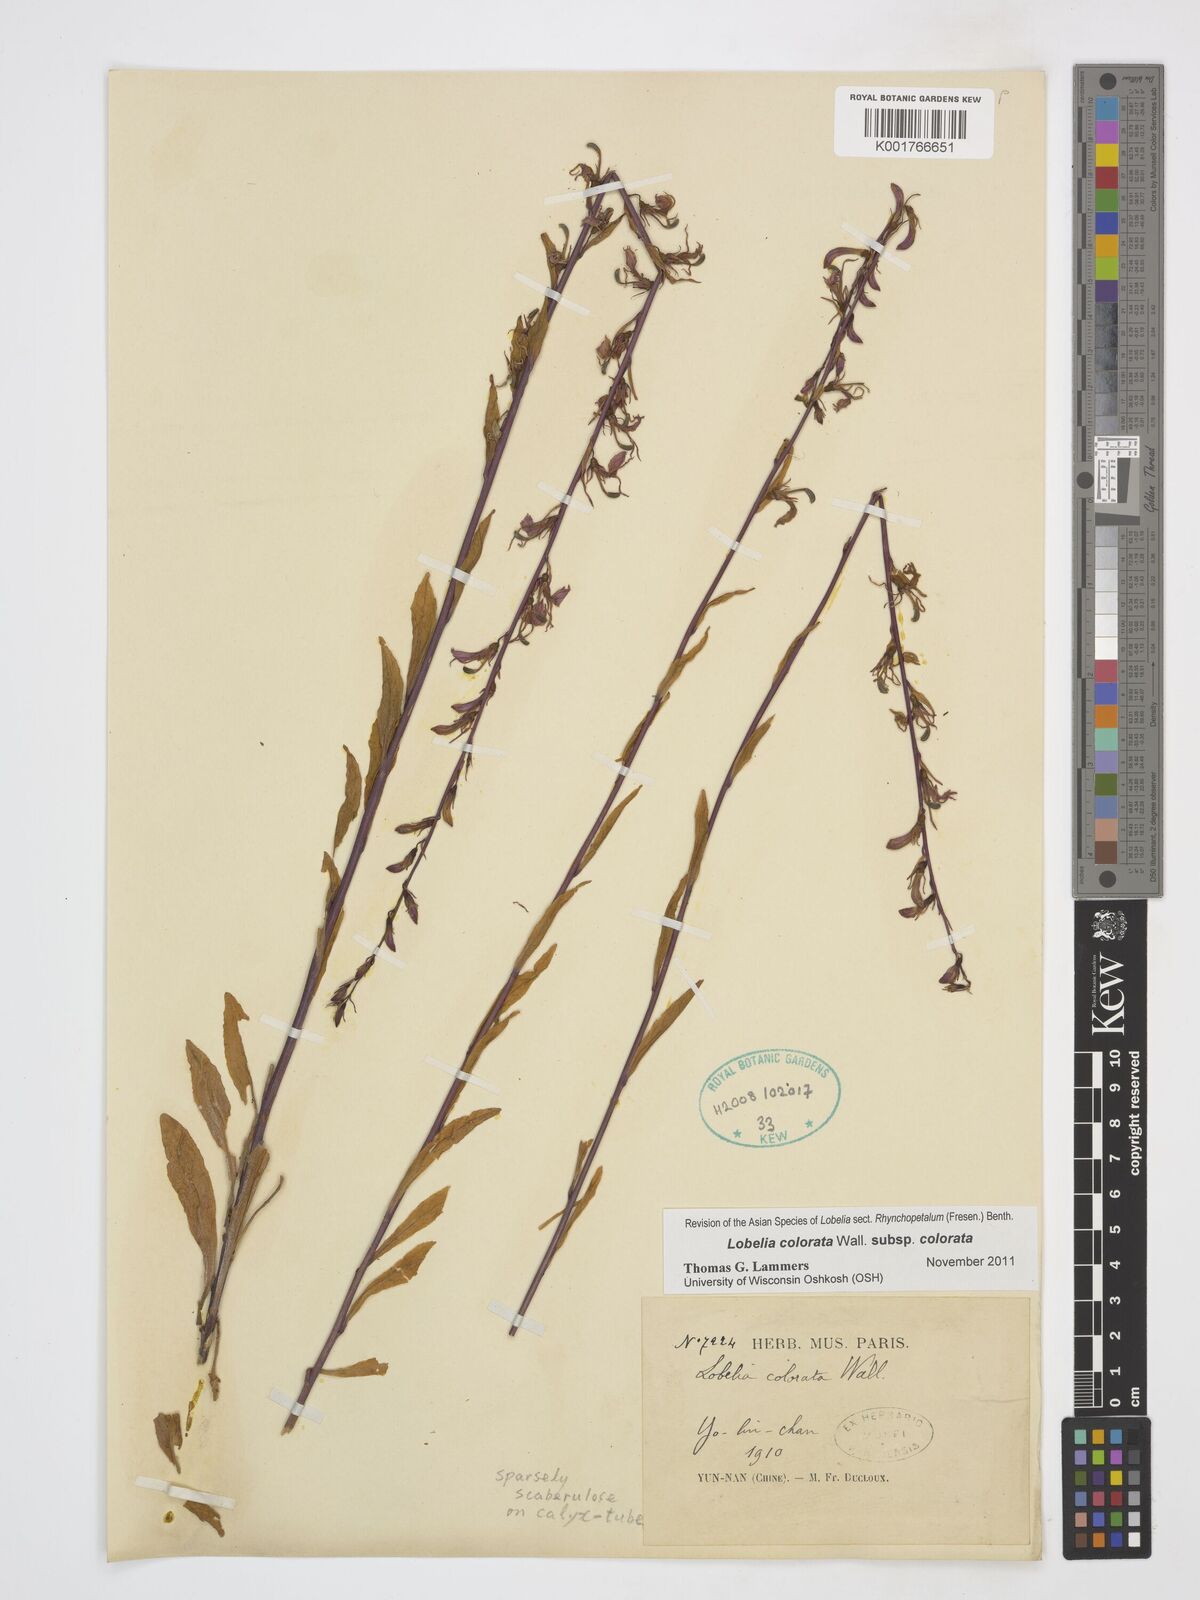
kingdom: Plantae
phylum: Tracheophyta
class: Magnoliopsida
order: Asterales
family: Campanulaceae
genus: Lobelia
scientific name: Lobelia nicotianifolia
